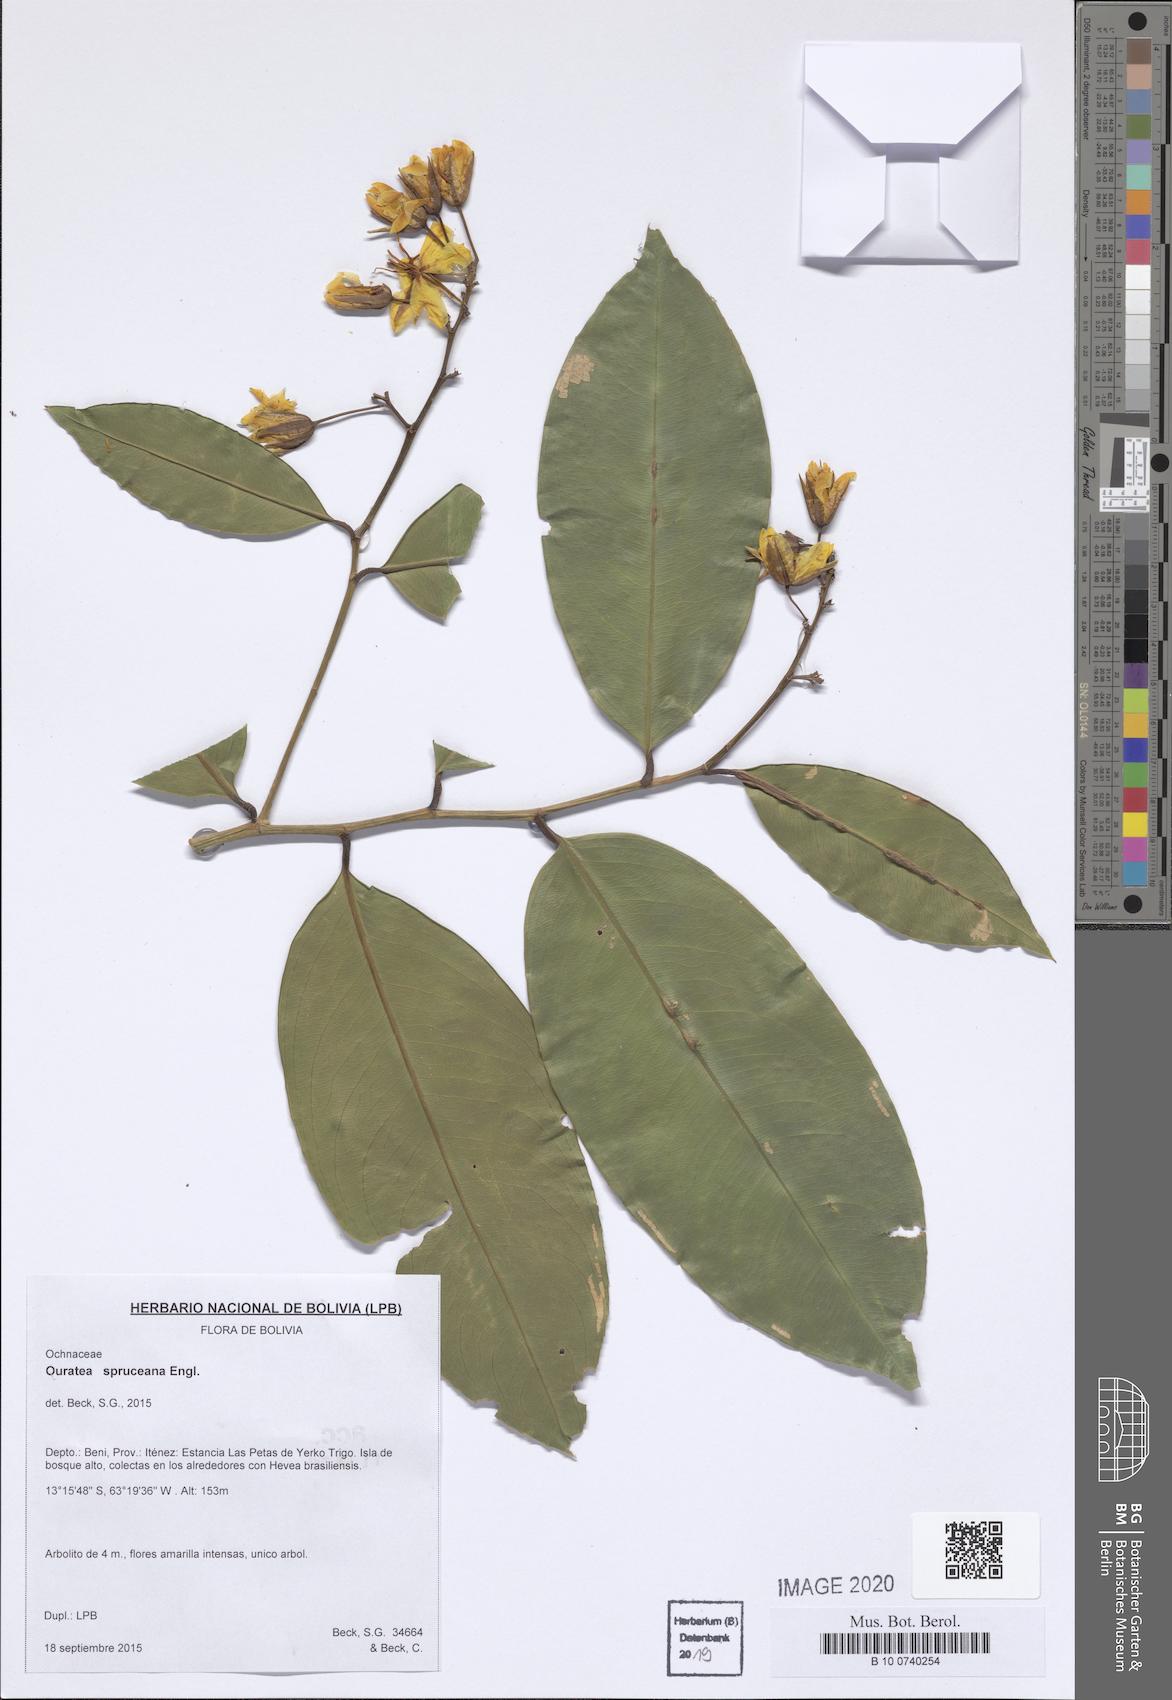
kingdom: Plantae
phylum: Tracheophyta
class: Magnoliopsida
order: Malpighiales
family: Ochnaceae
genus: Ouratea
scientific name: Ouratea spruceana
